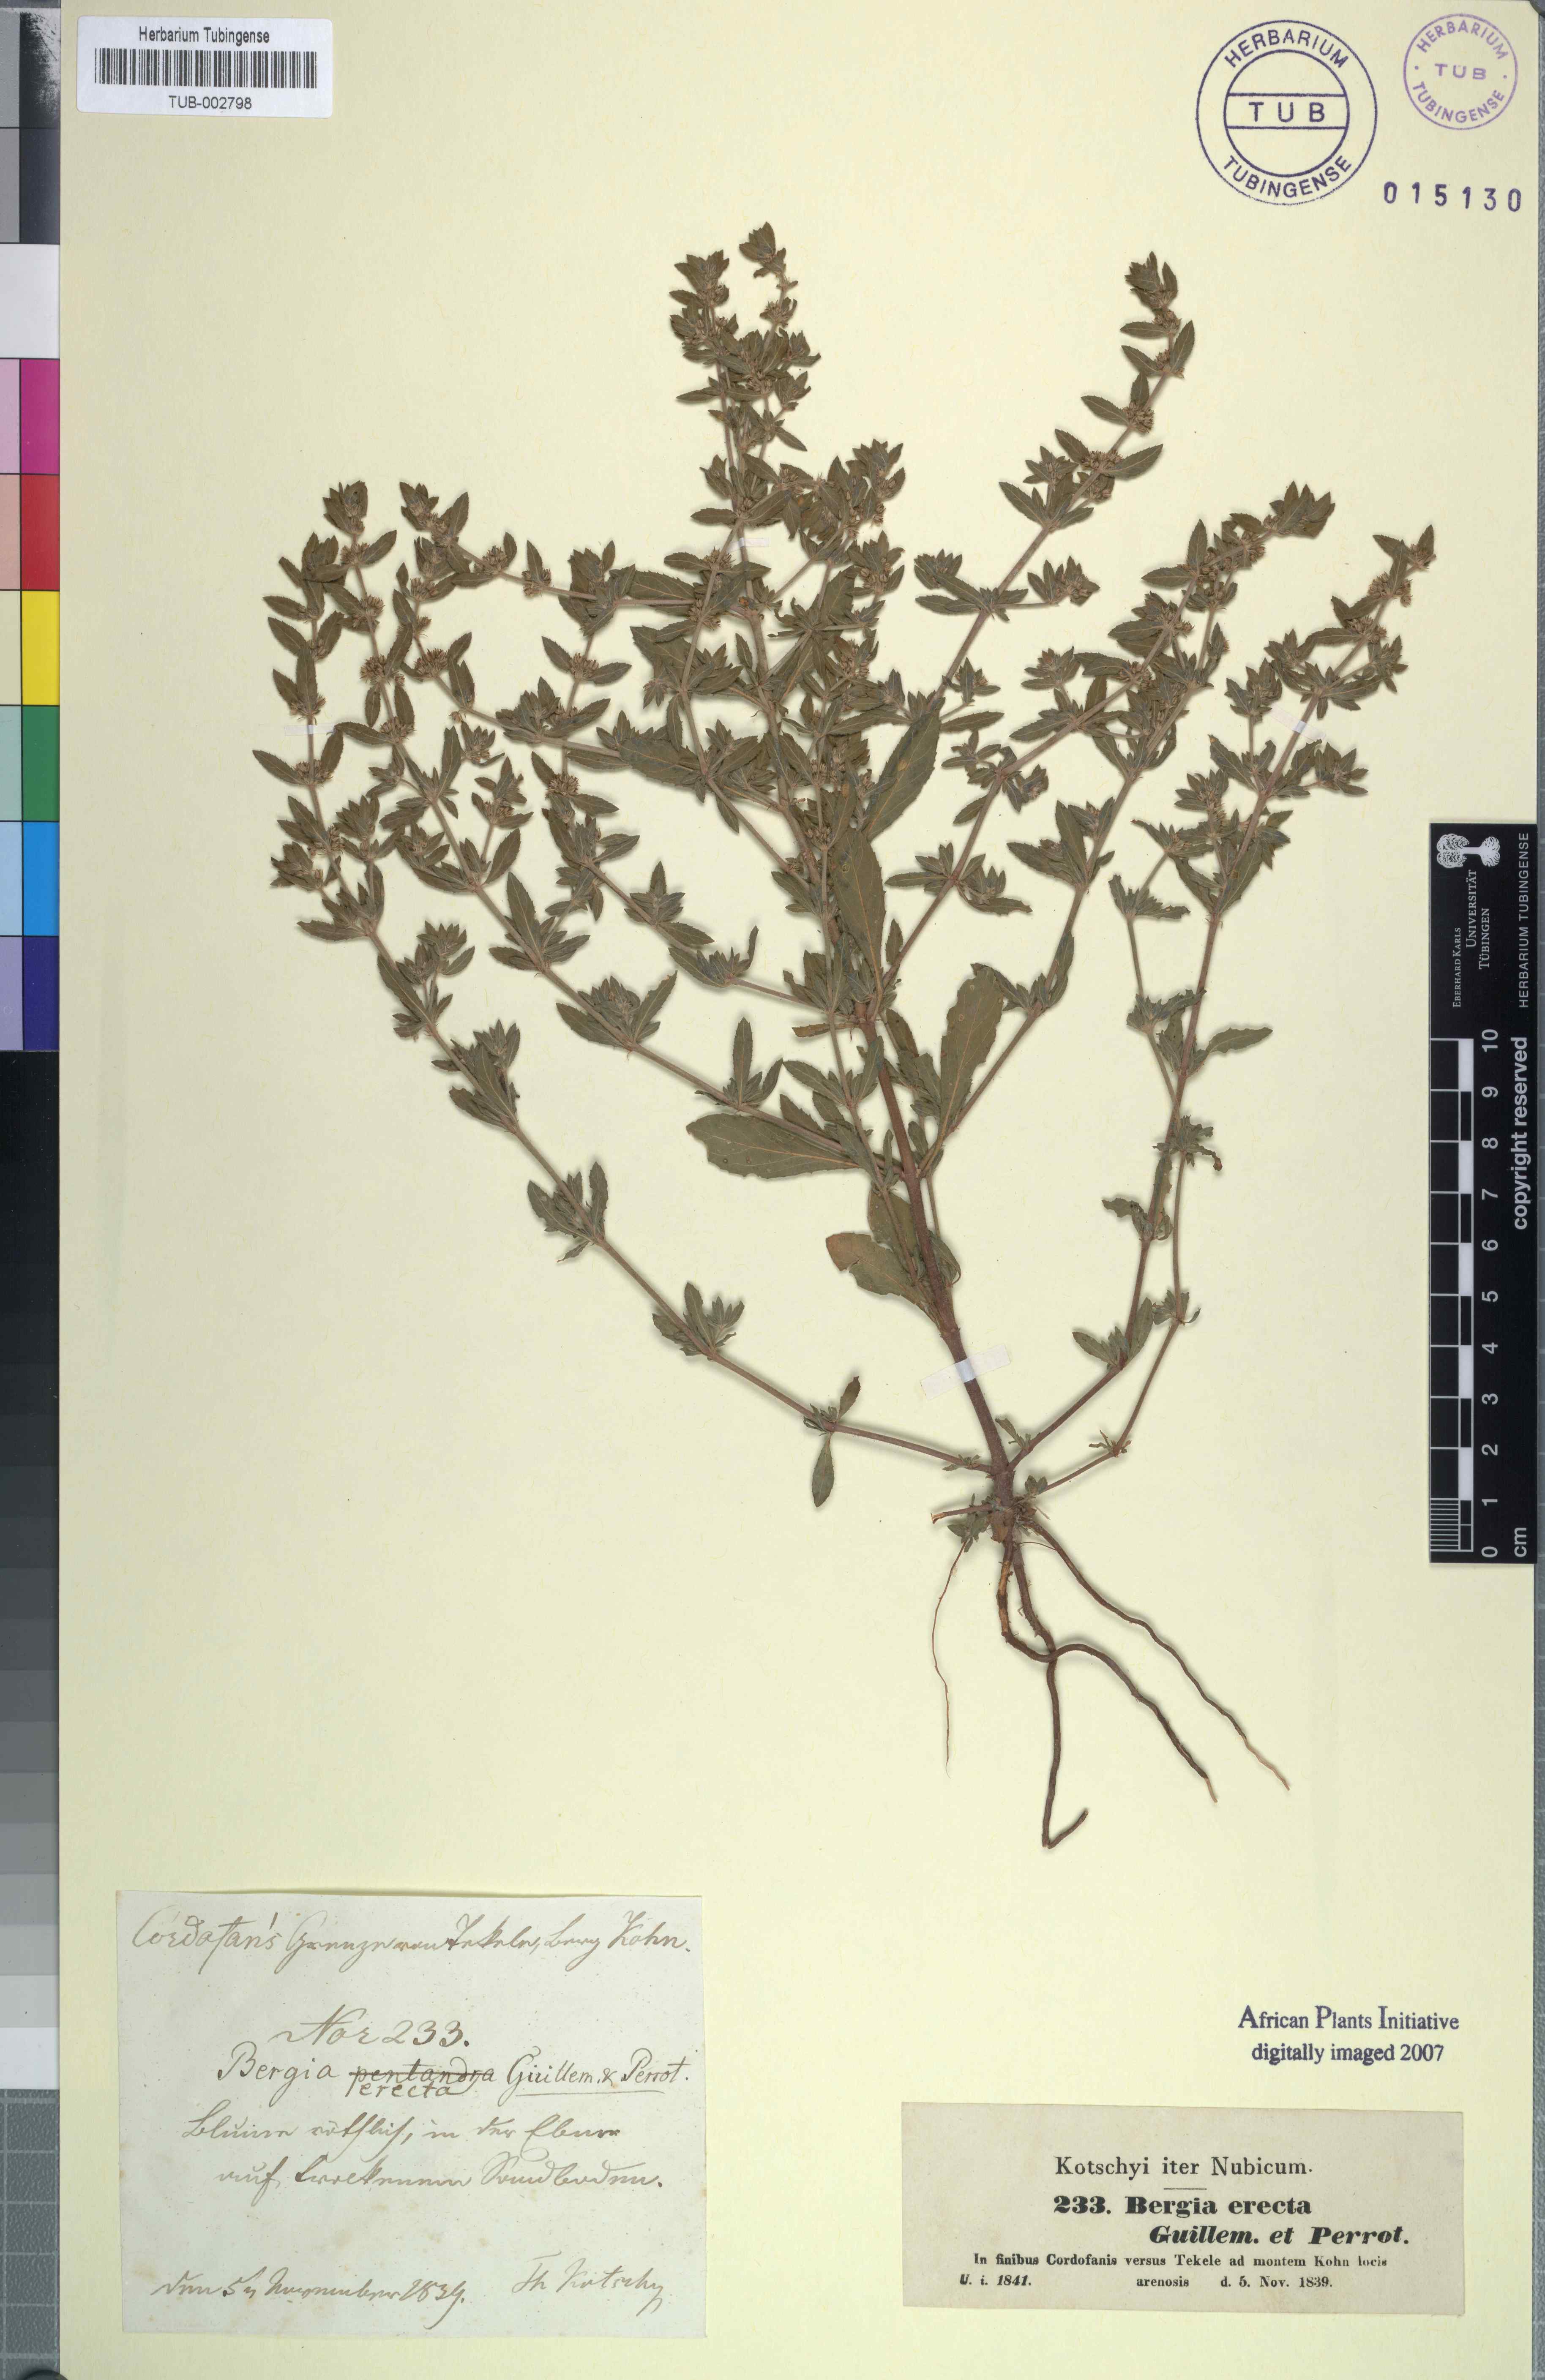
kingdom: Plantae
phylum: Tracheophyta
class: Magnoliopsida
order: Malpighiales
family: Elatinaceae
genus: Bergia
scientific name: Bergia erecta
